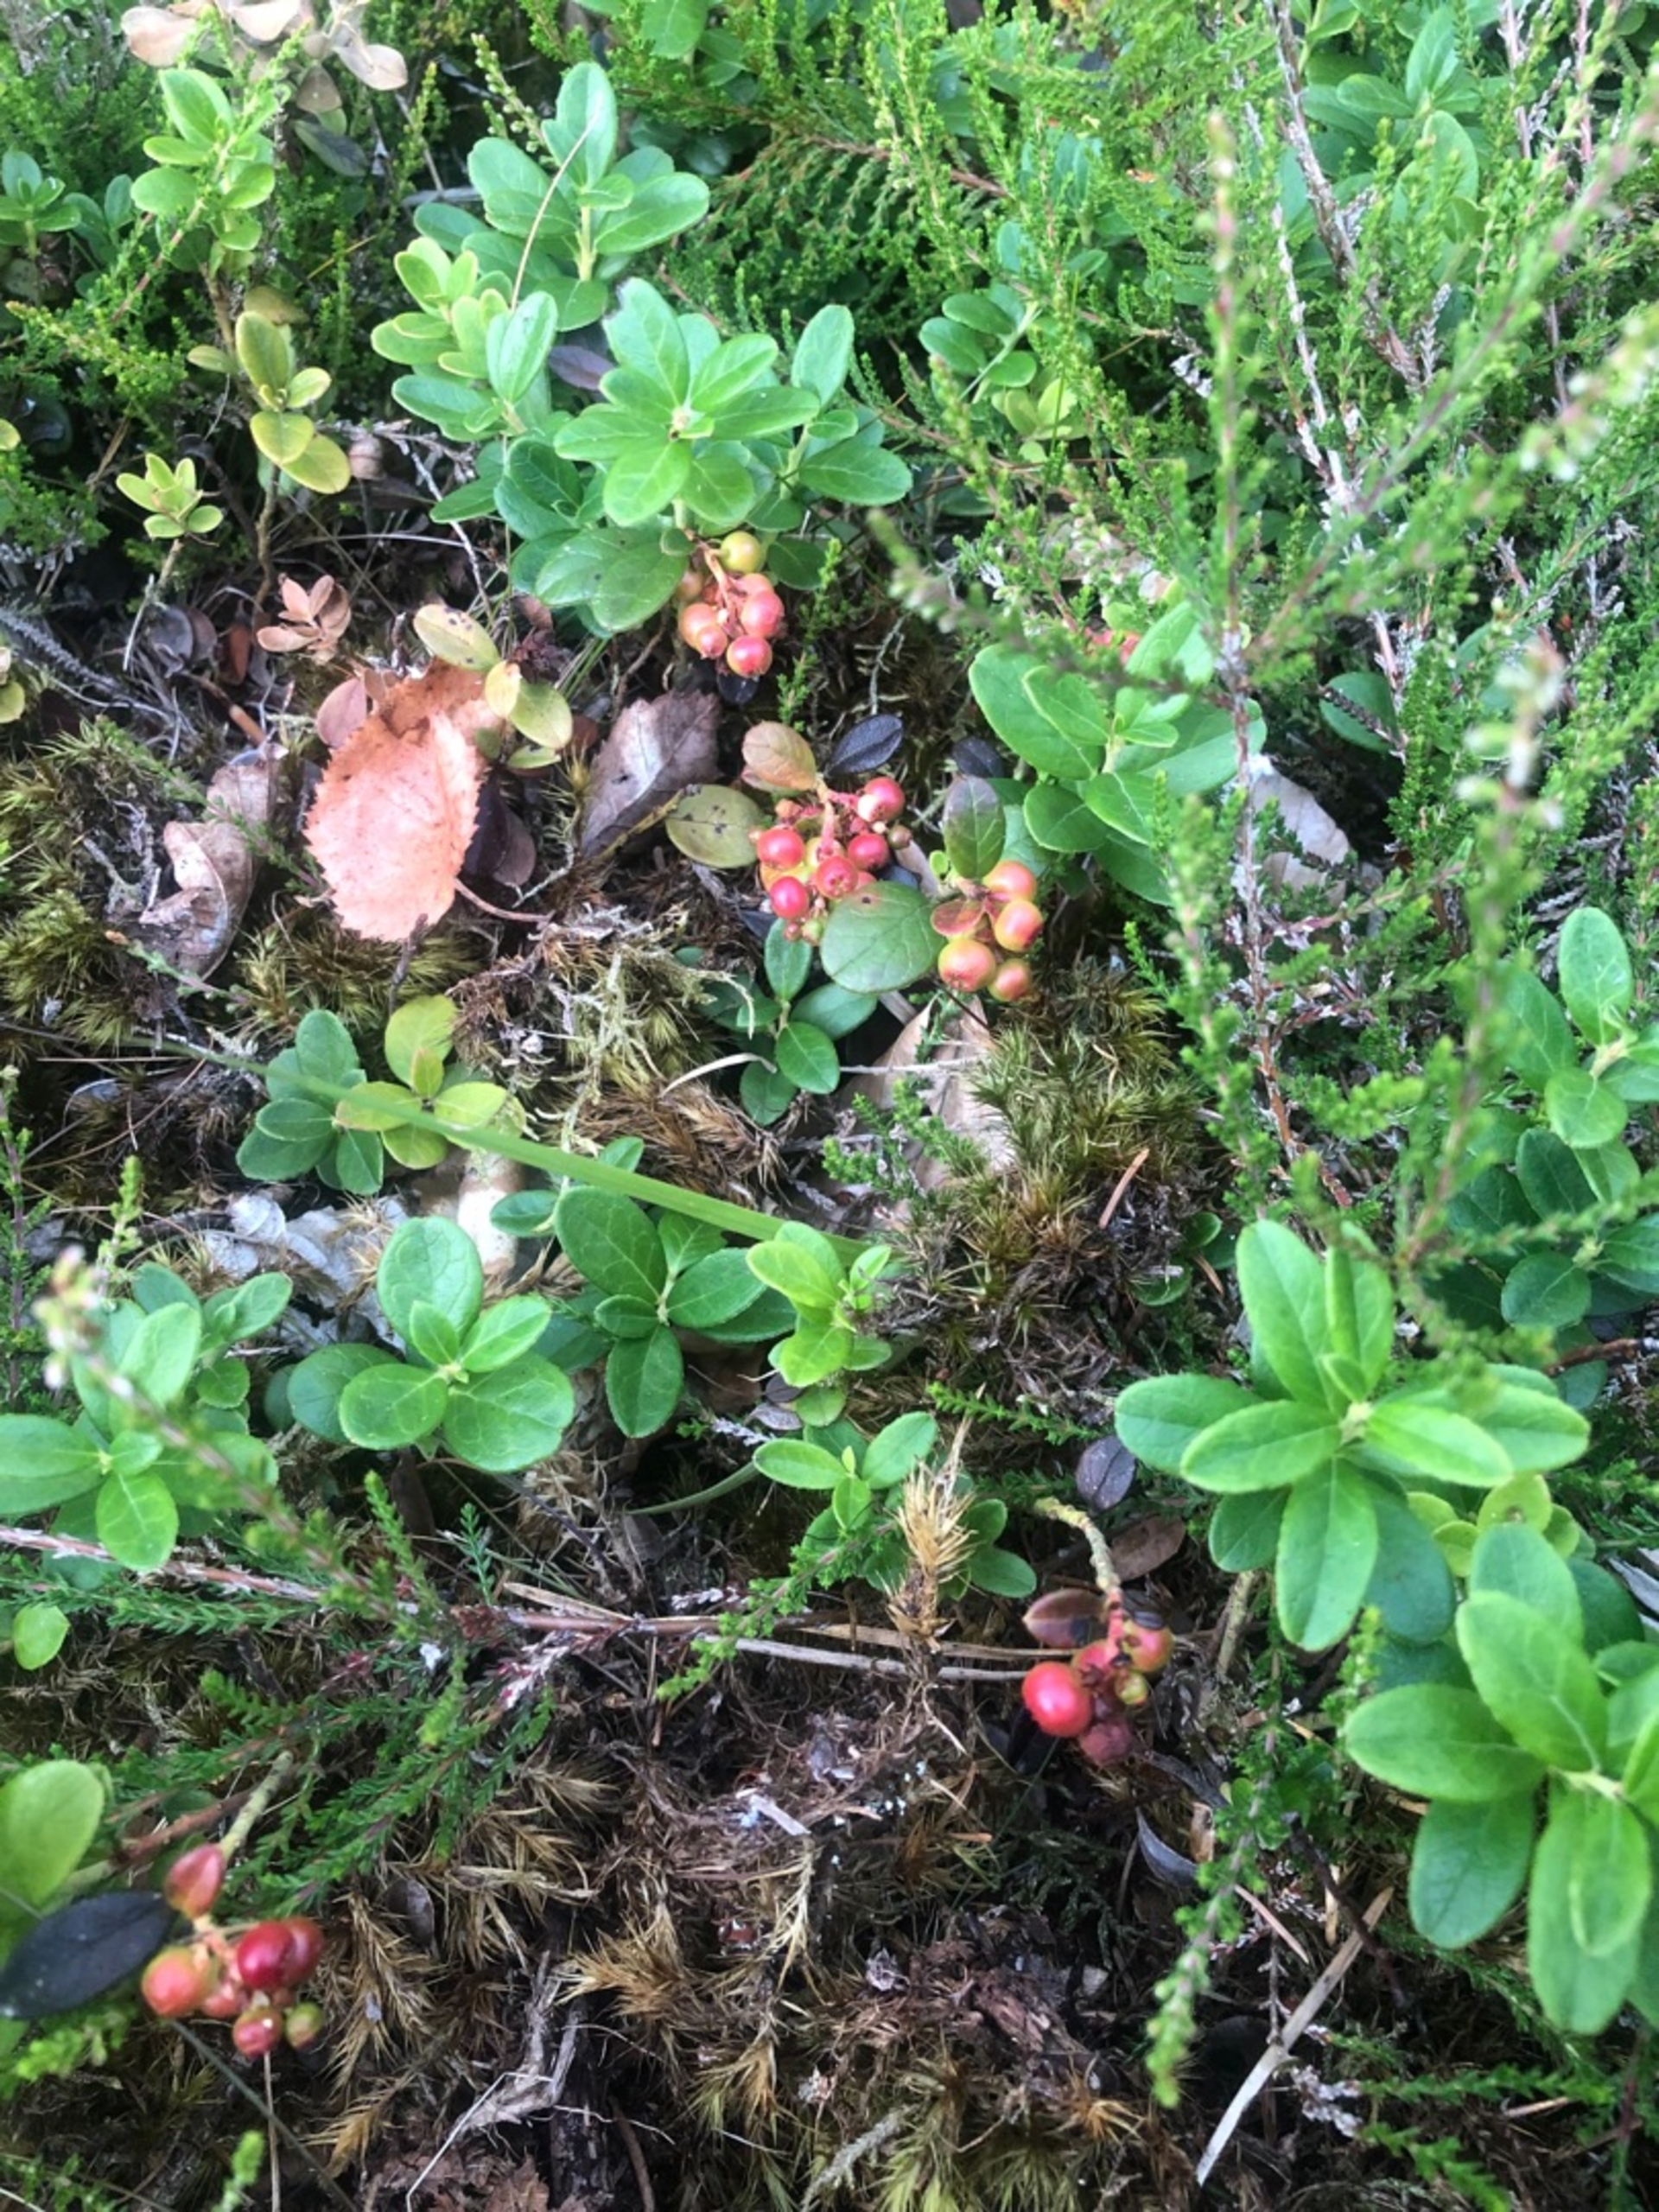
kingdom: Plantae
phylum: Tracheophyta
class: Magnoliopsida
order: Ericales
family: Ericaceae
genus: Vaccinium
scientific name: Vaccinium vitis-idaea
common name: Tyttebær
